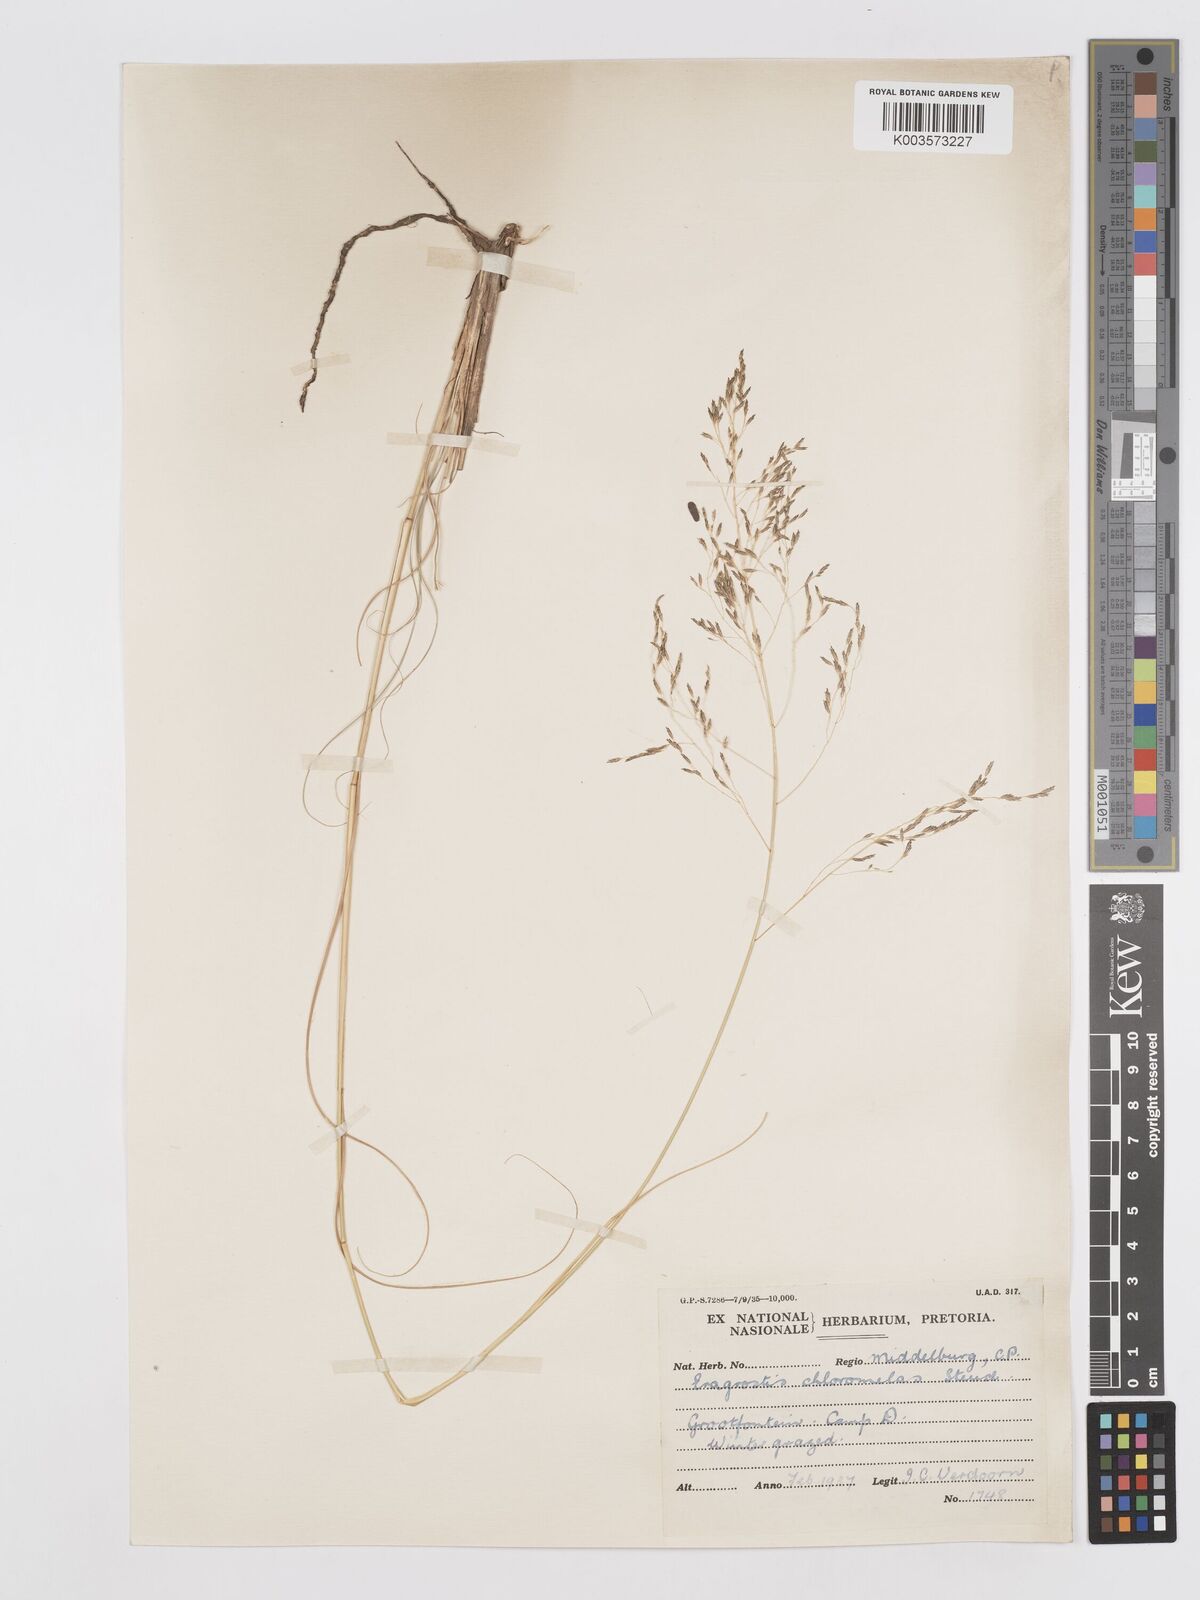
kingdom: Plantae
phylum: Tracheophyta
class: Liliopsida
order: Poales
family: Poaceae
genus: Eragrostis
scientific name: Eragrostis curvula
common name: African love-grass
